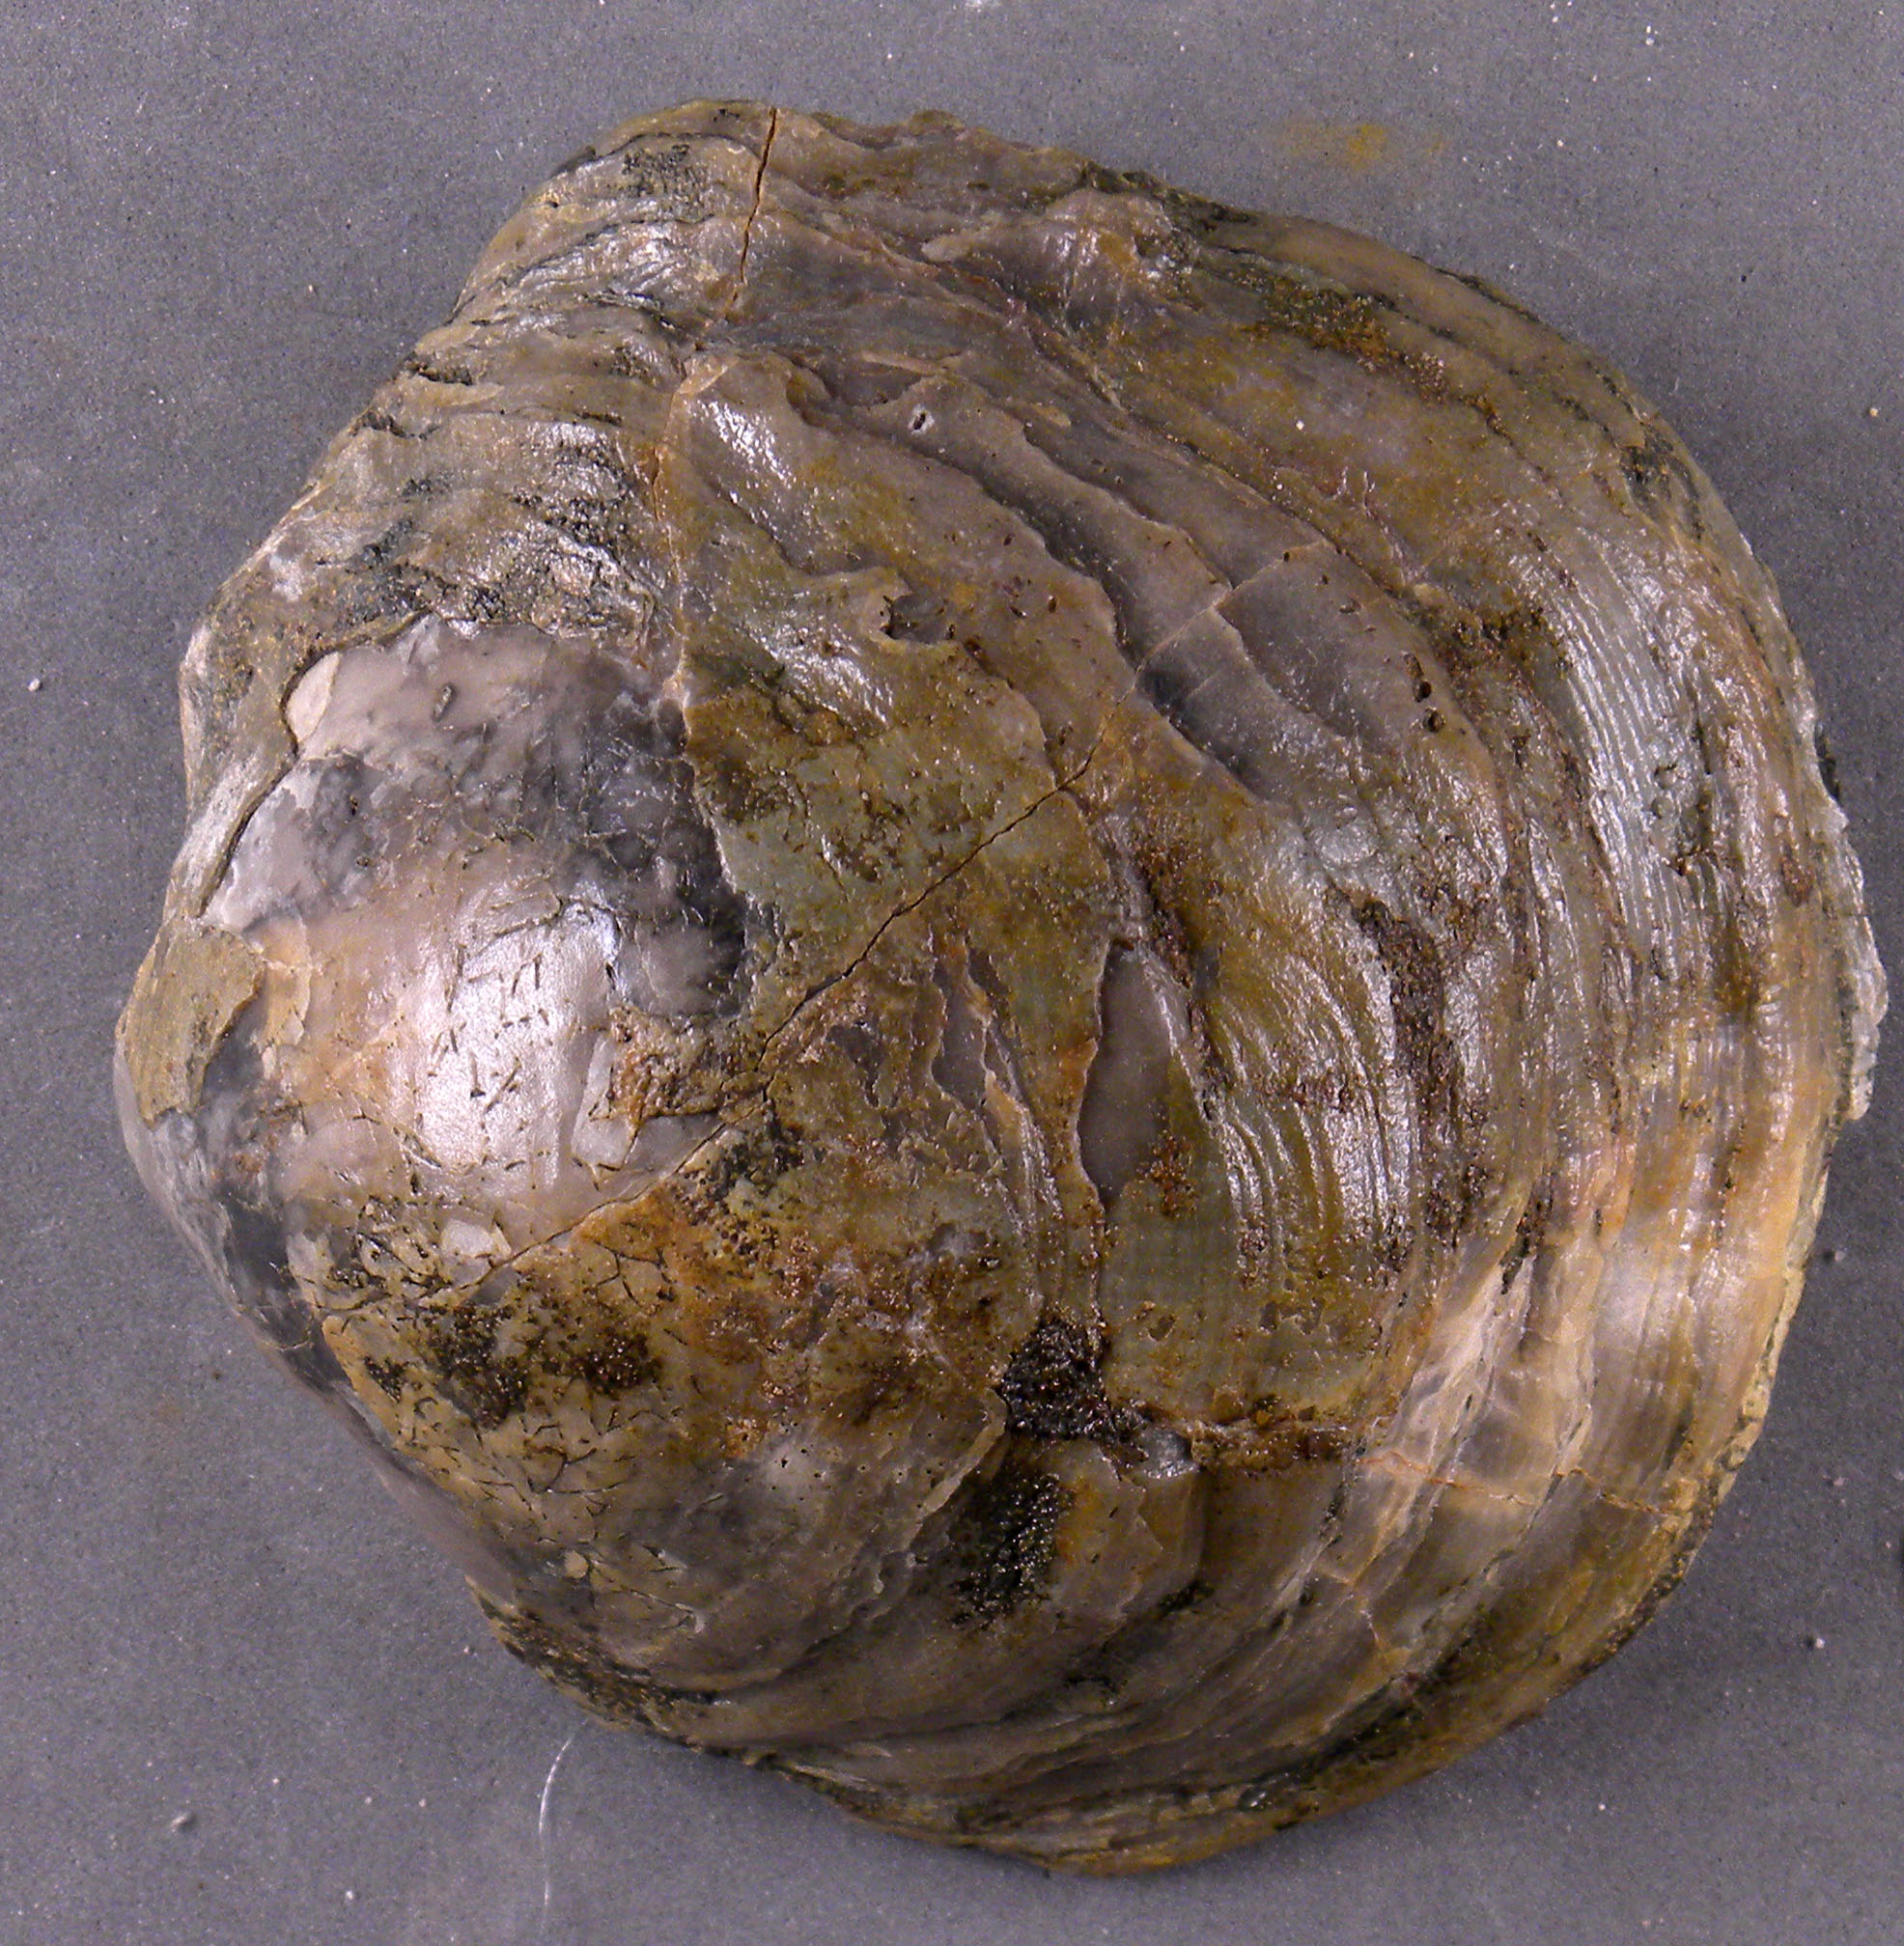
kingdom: Animalia
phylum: Mollusca
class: Bivalvia
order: Ostreida
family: Gryphaeidae
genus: Gryphaea
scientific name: Gryphaea
